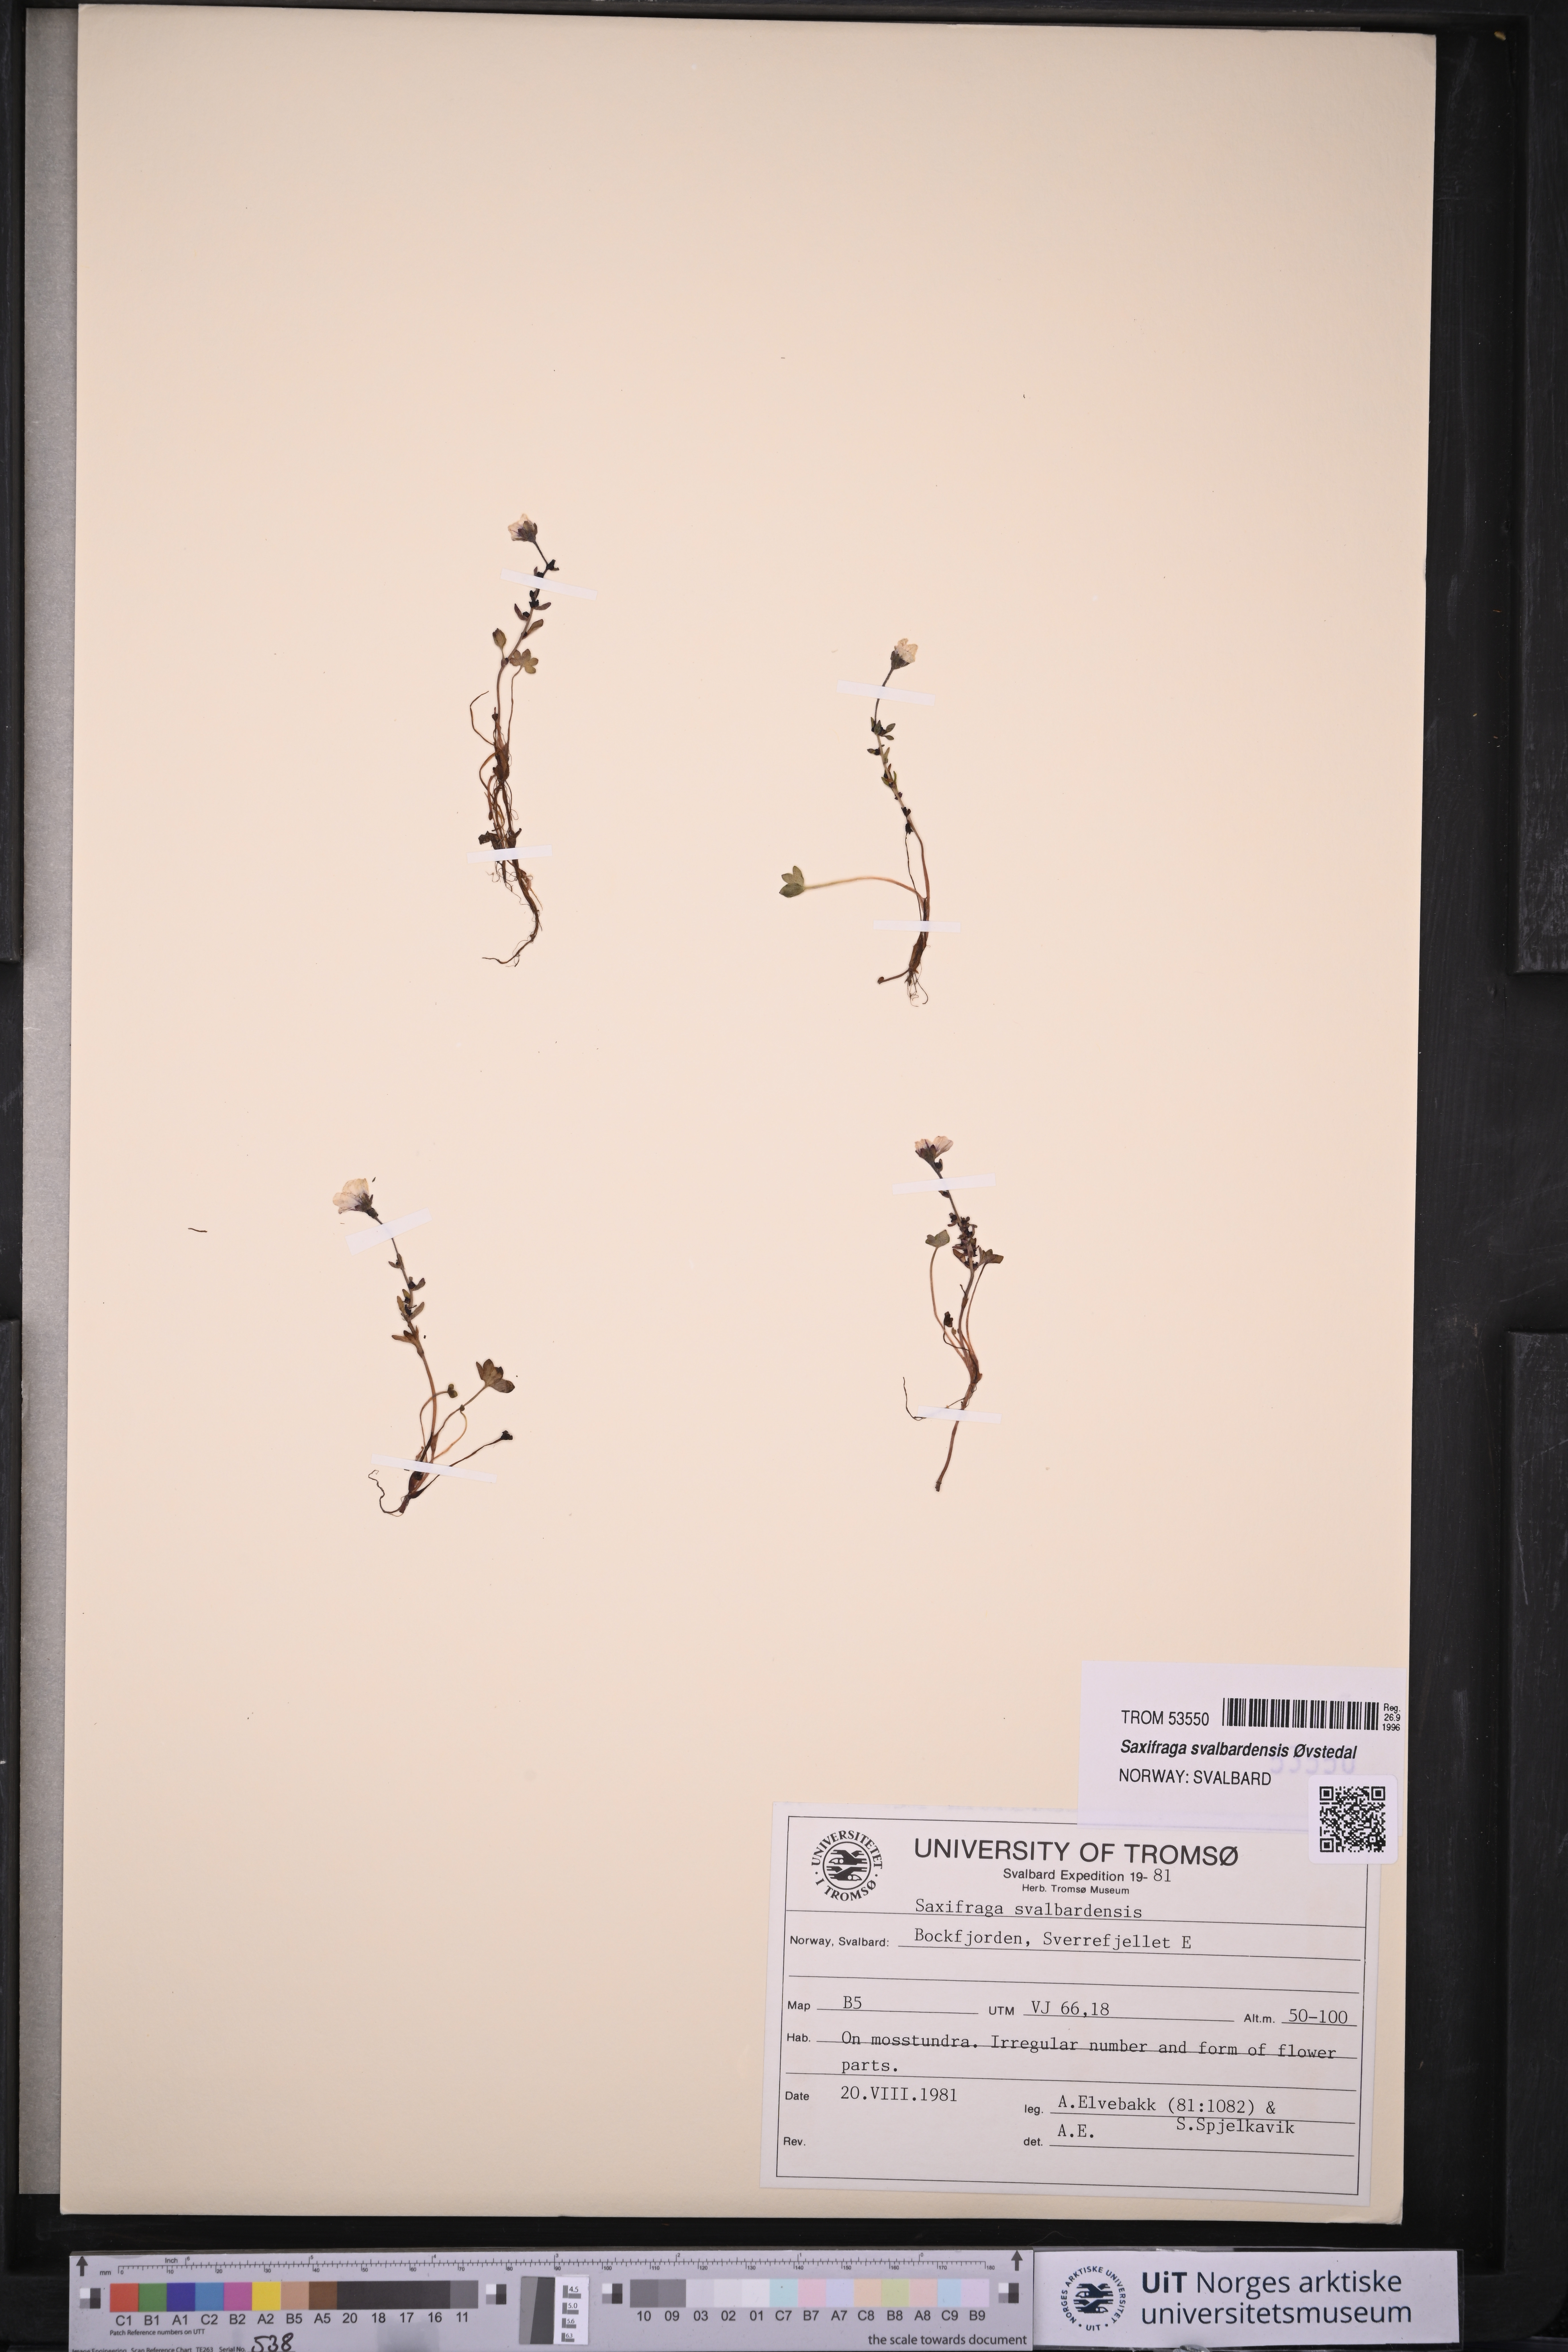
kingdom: Plantae
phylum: Tracheophyta
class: Magnoliopsida
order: Saxifragales
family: Saxifragaceae
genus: Saxifraga
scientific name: Saxifraga svalbardensis
